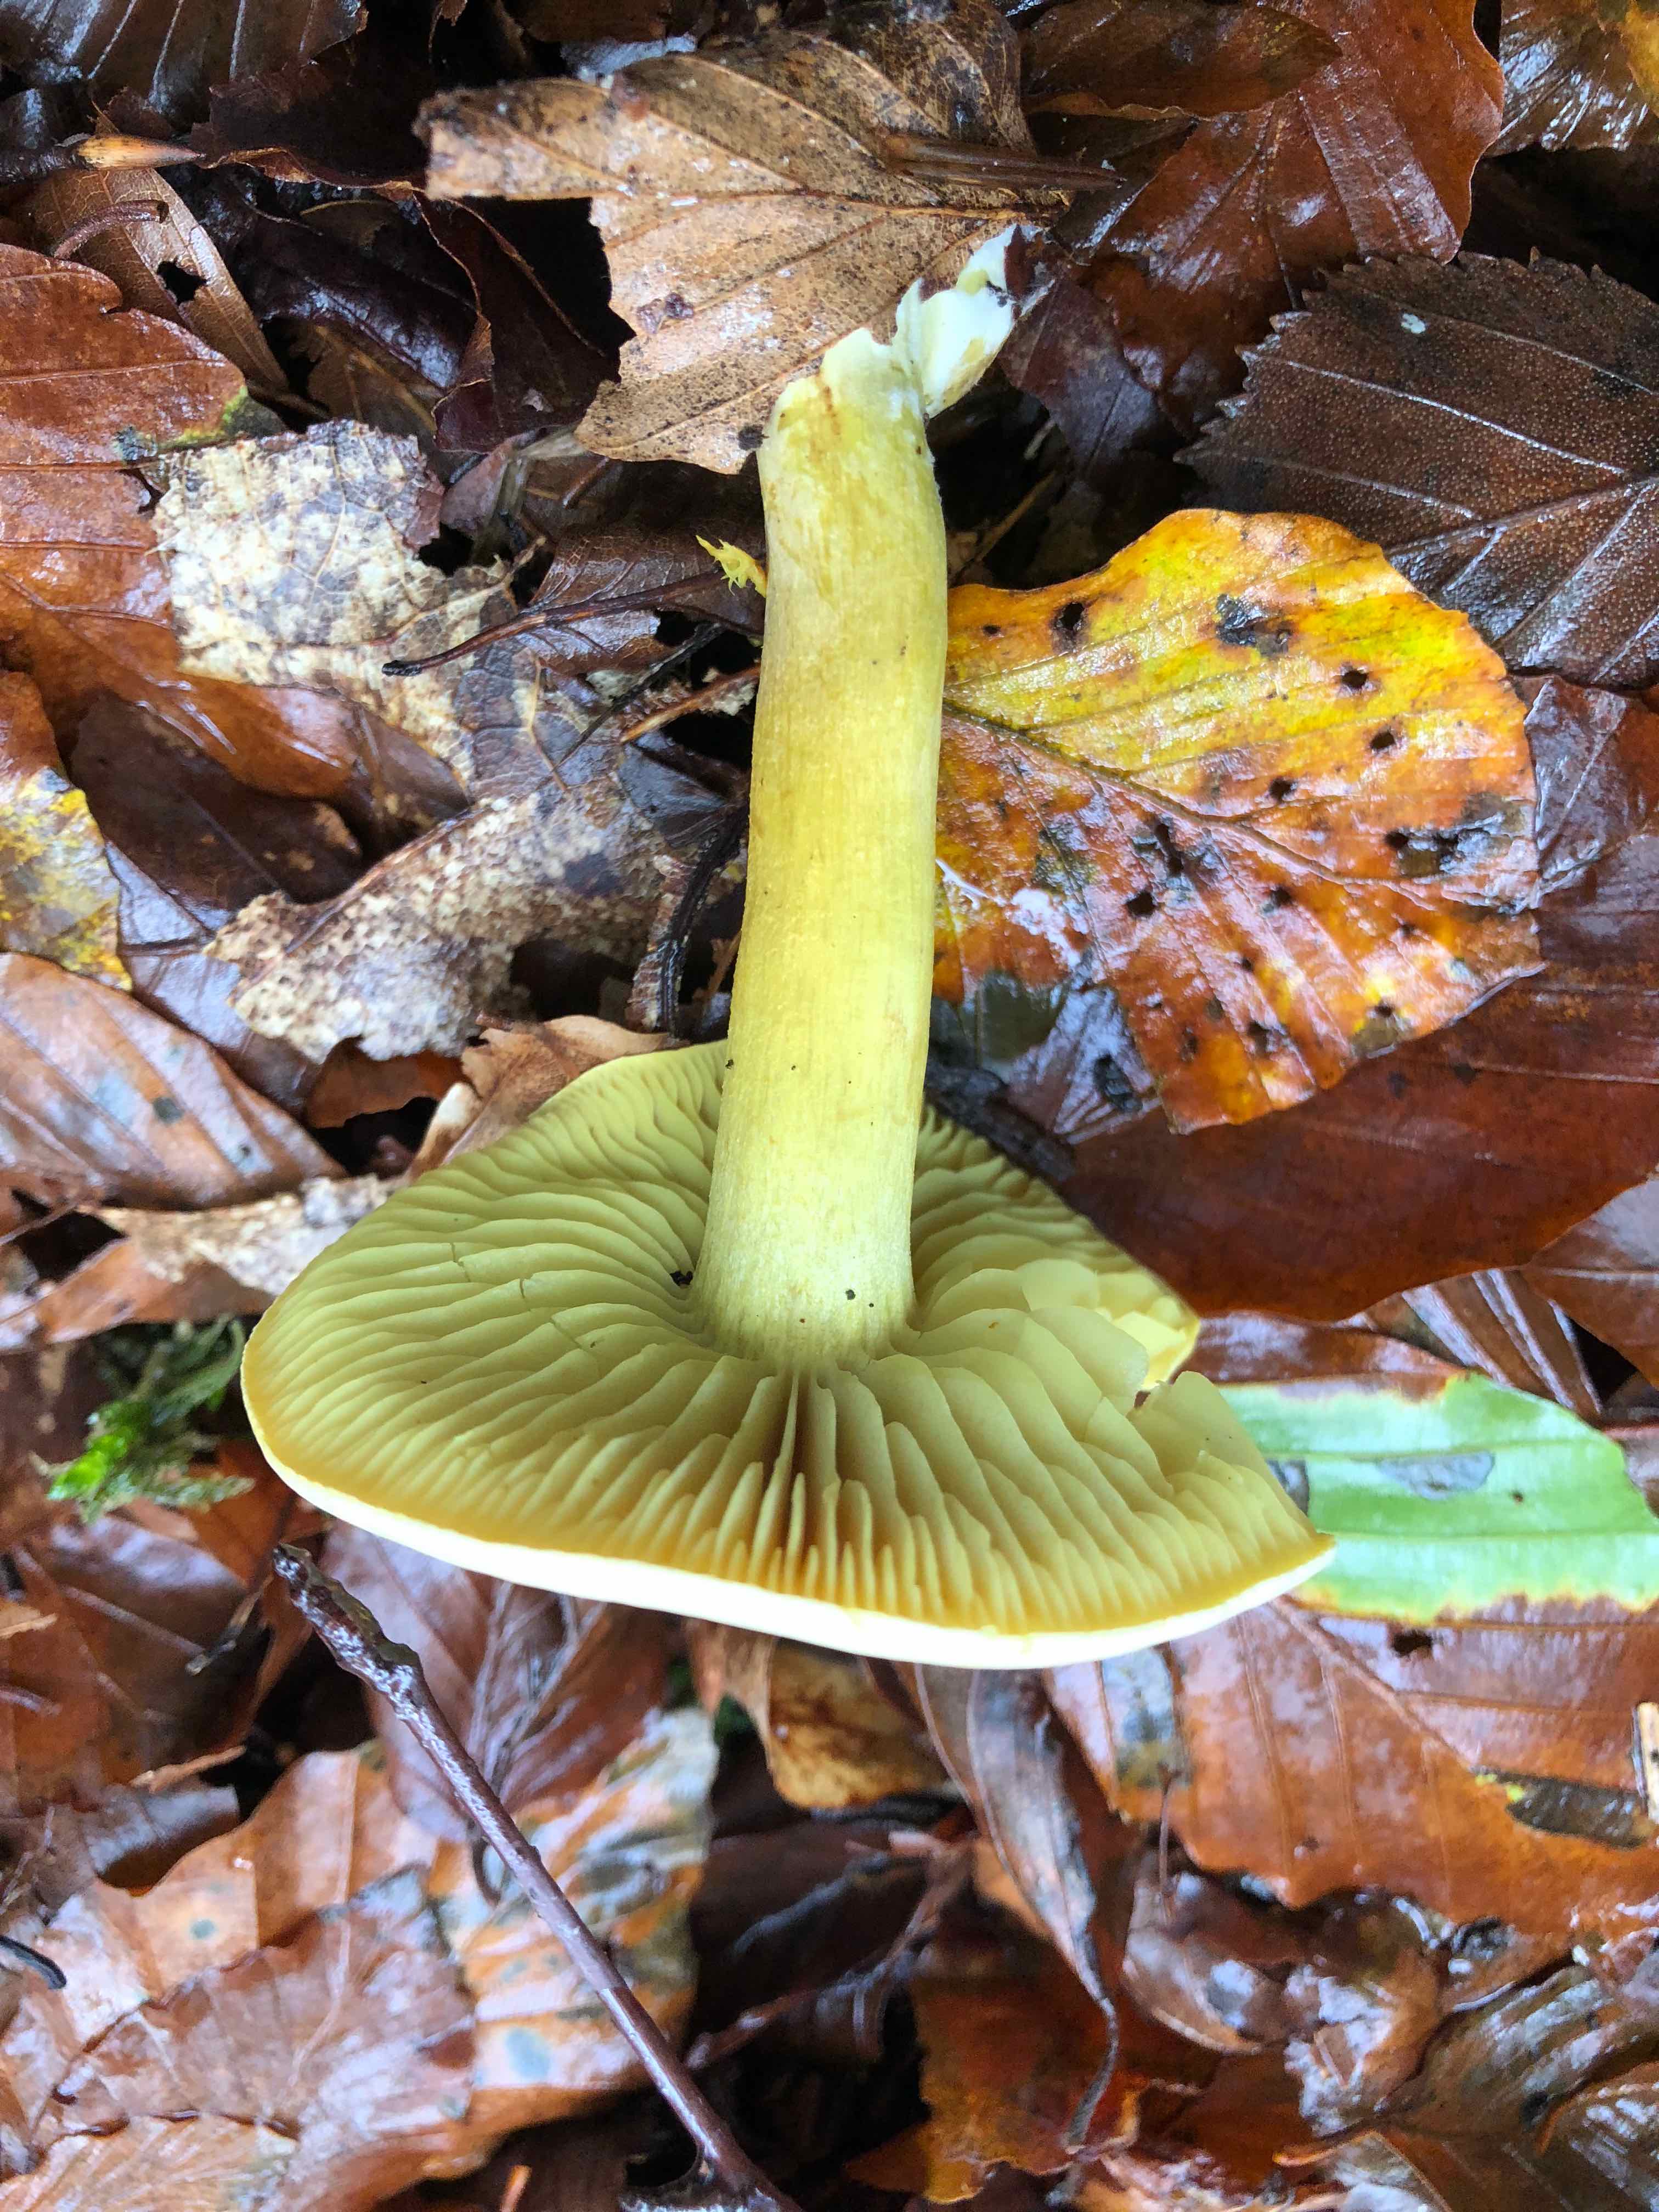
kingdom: Fungi
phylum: Basidiomycota
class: Agaricomycetes
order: Agaricales
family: Tricholomataceae
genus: Tricholoma
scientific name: Tricholoma sulphureum
